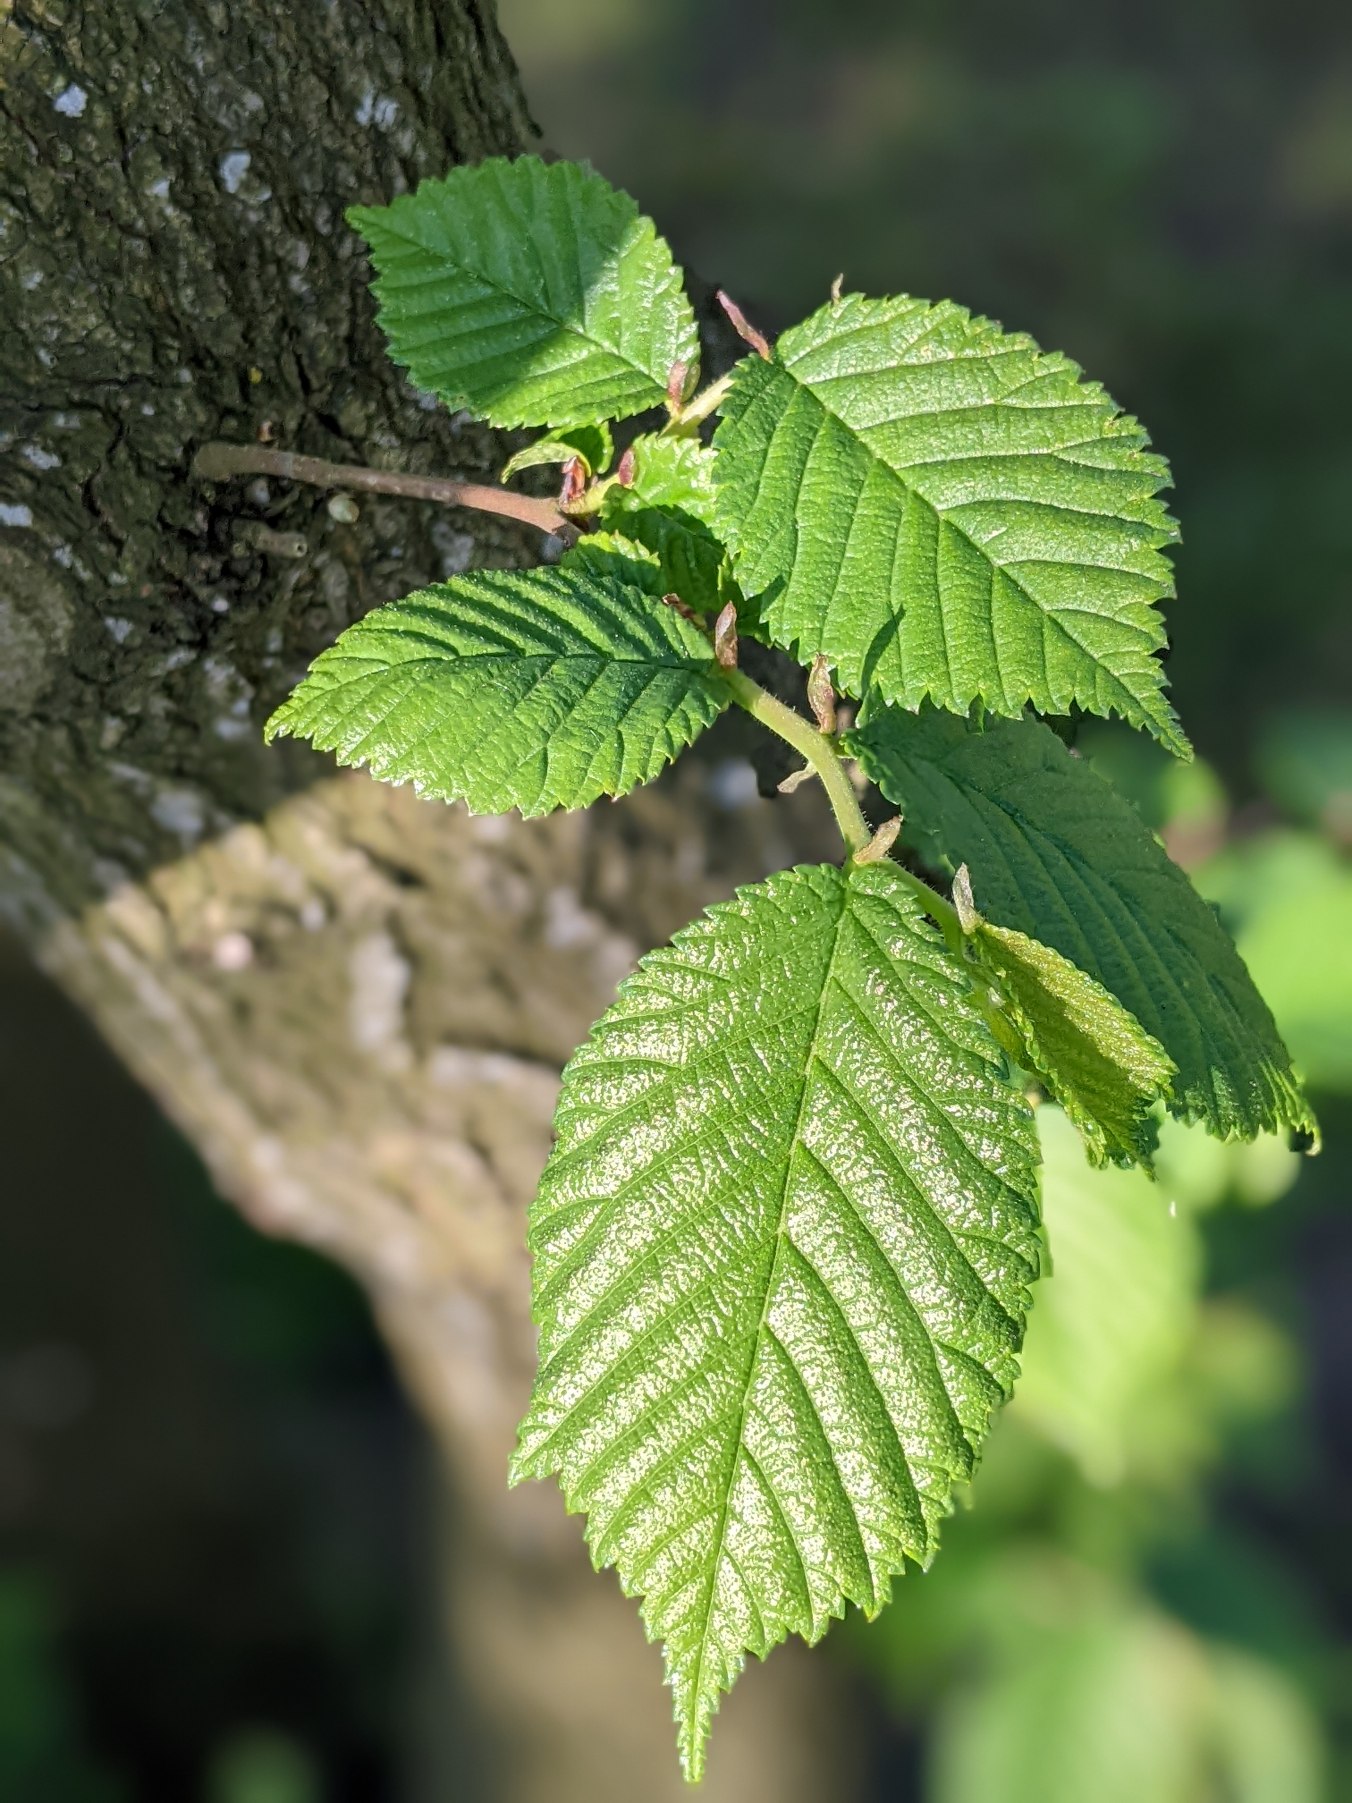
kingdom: Plantae
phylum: Tracheophyta
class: Magnoliopsida
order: Rosales
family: Ulmaceae
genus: Ulmus
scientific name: Ulmus glabra
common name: Skov-elm/storbladet elm
